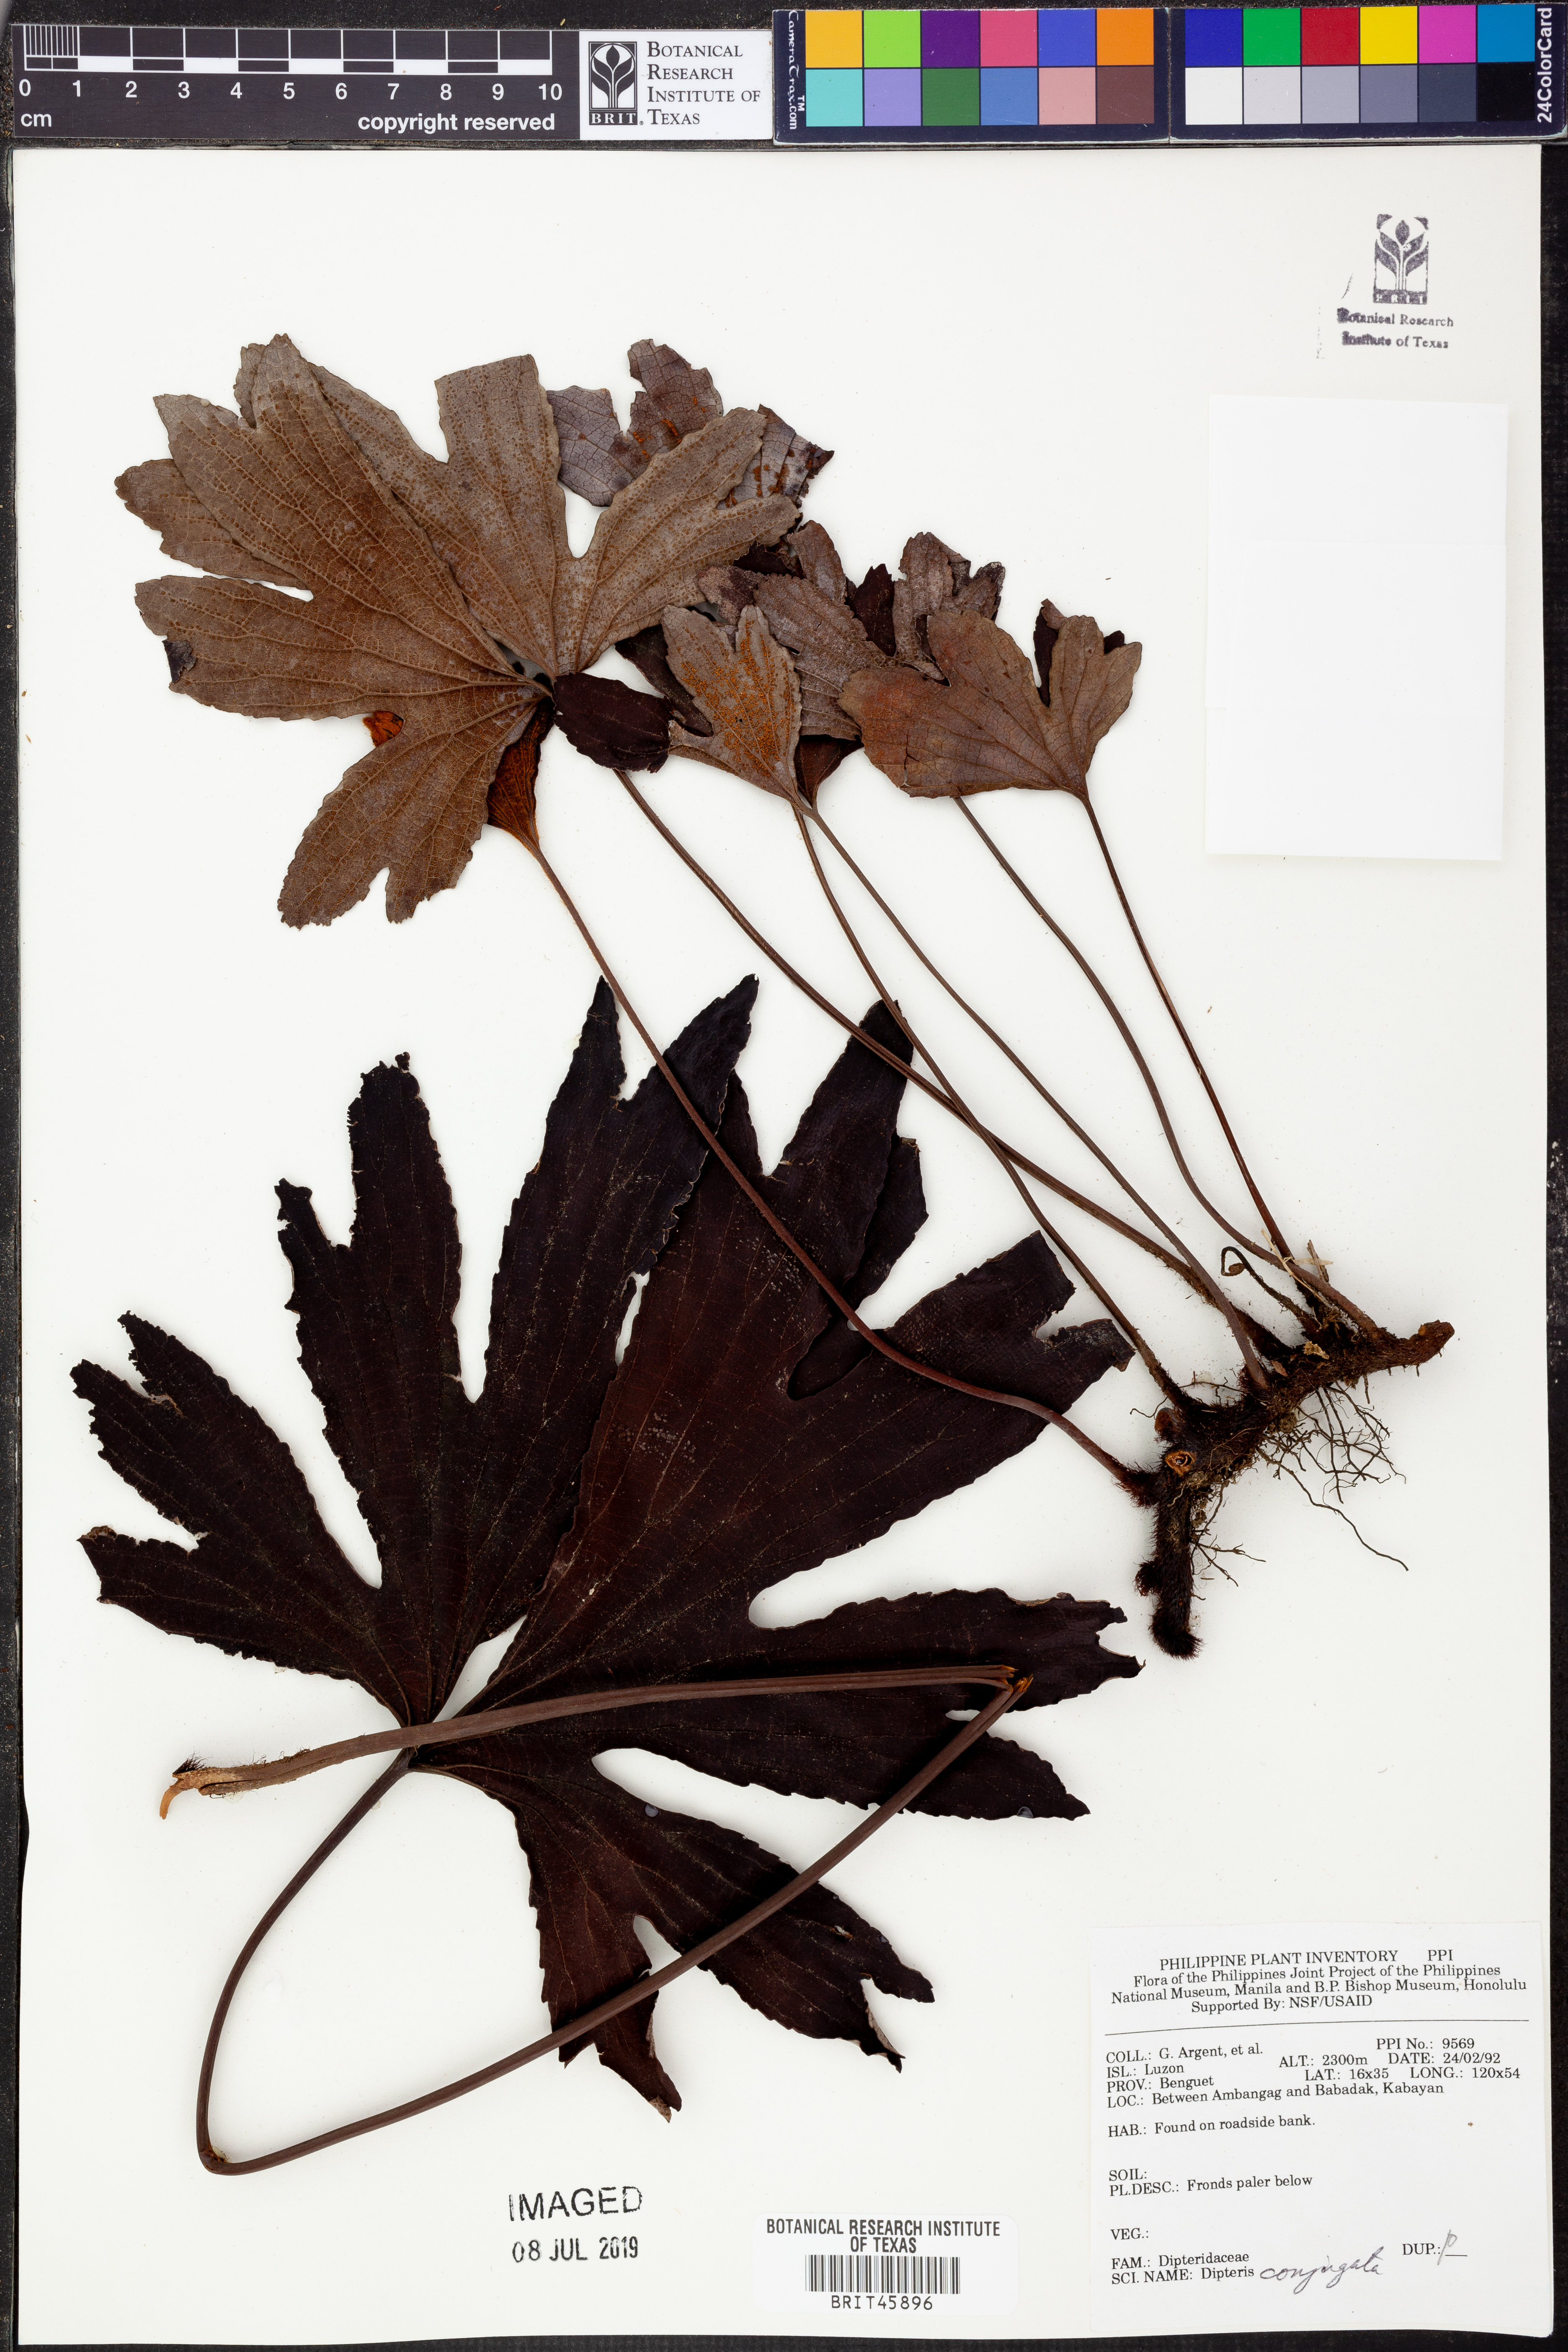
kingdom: Plantae
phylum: Tracheophyta
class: Polypodiopsida
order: Gleicheniales
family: Dipteridaceae
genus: Dipteris
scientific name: Dipteris conjugata
